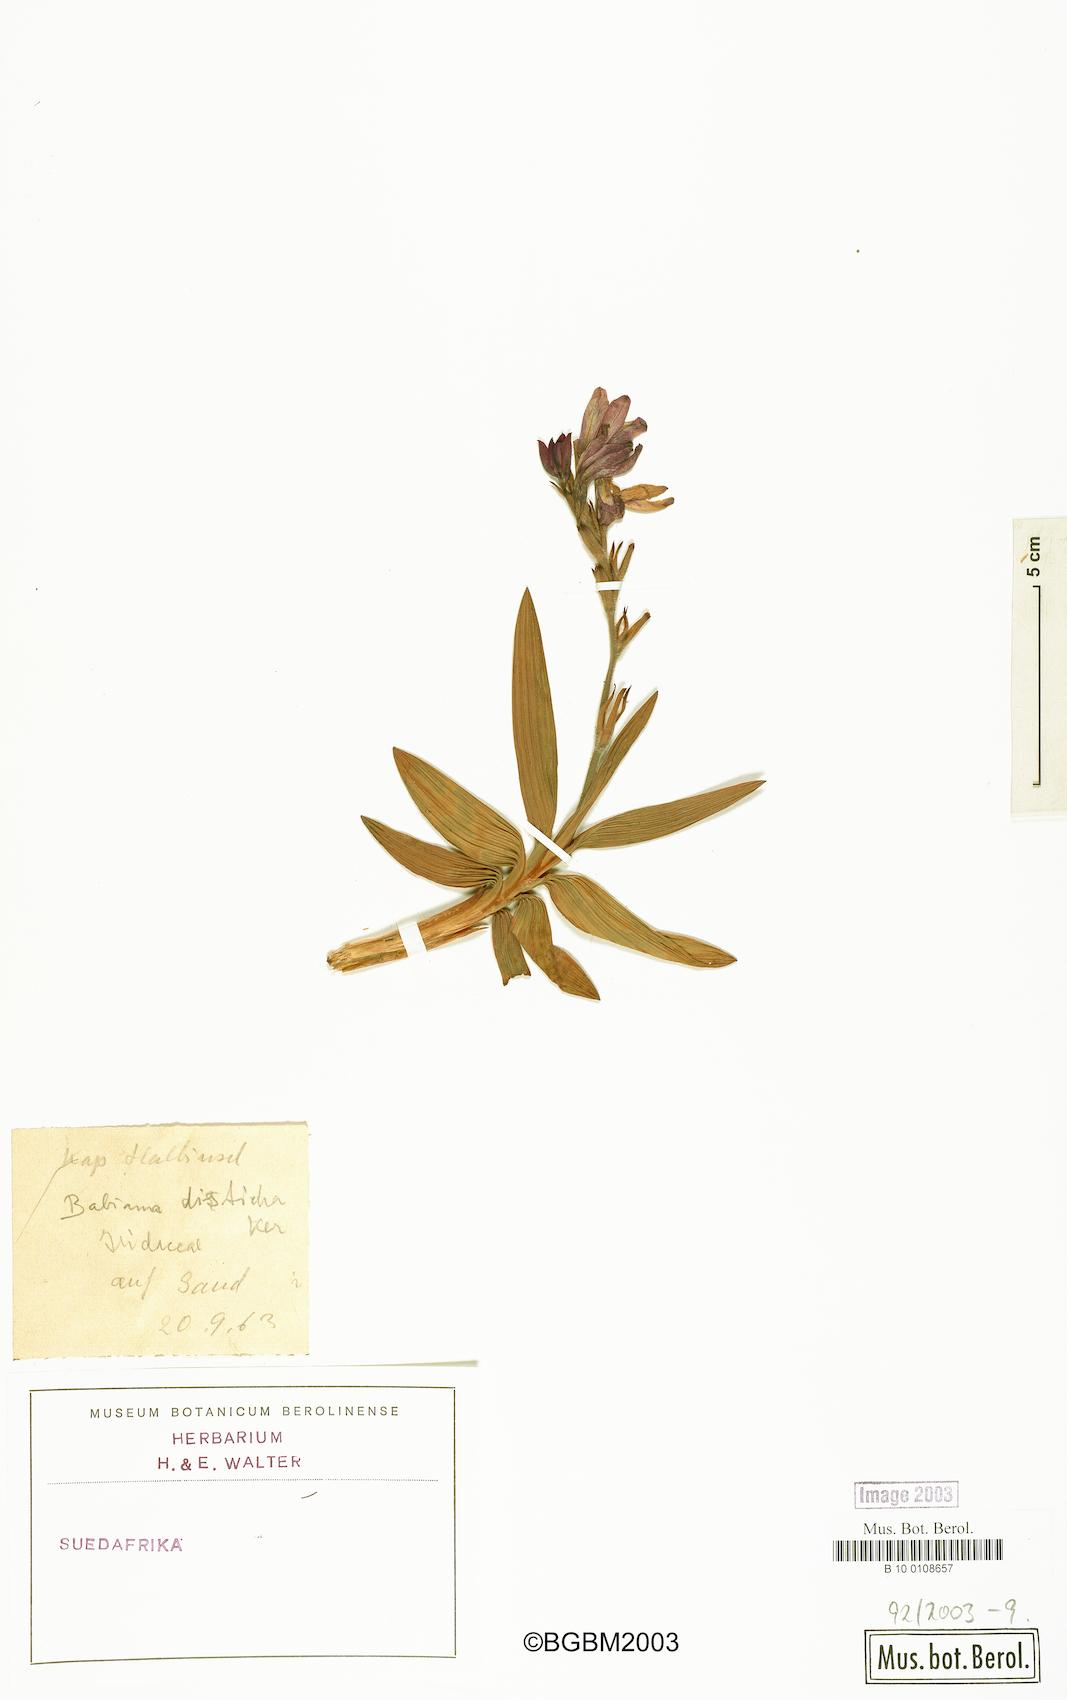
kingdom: Plantae
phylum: Tracheophyta
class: Liliopsida
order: Asparagales
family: Iridaceae
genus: Babiana
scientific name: Babiana fragrans
